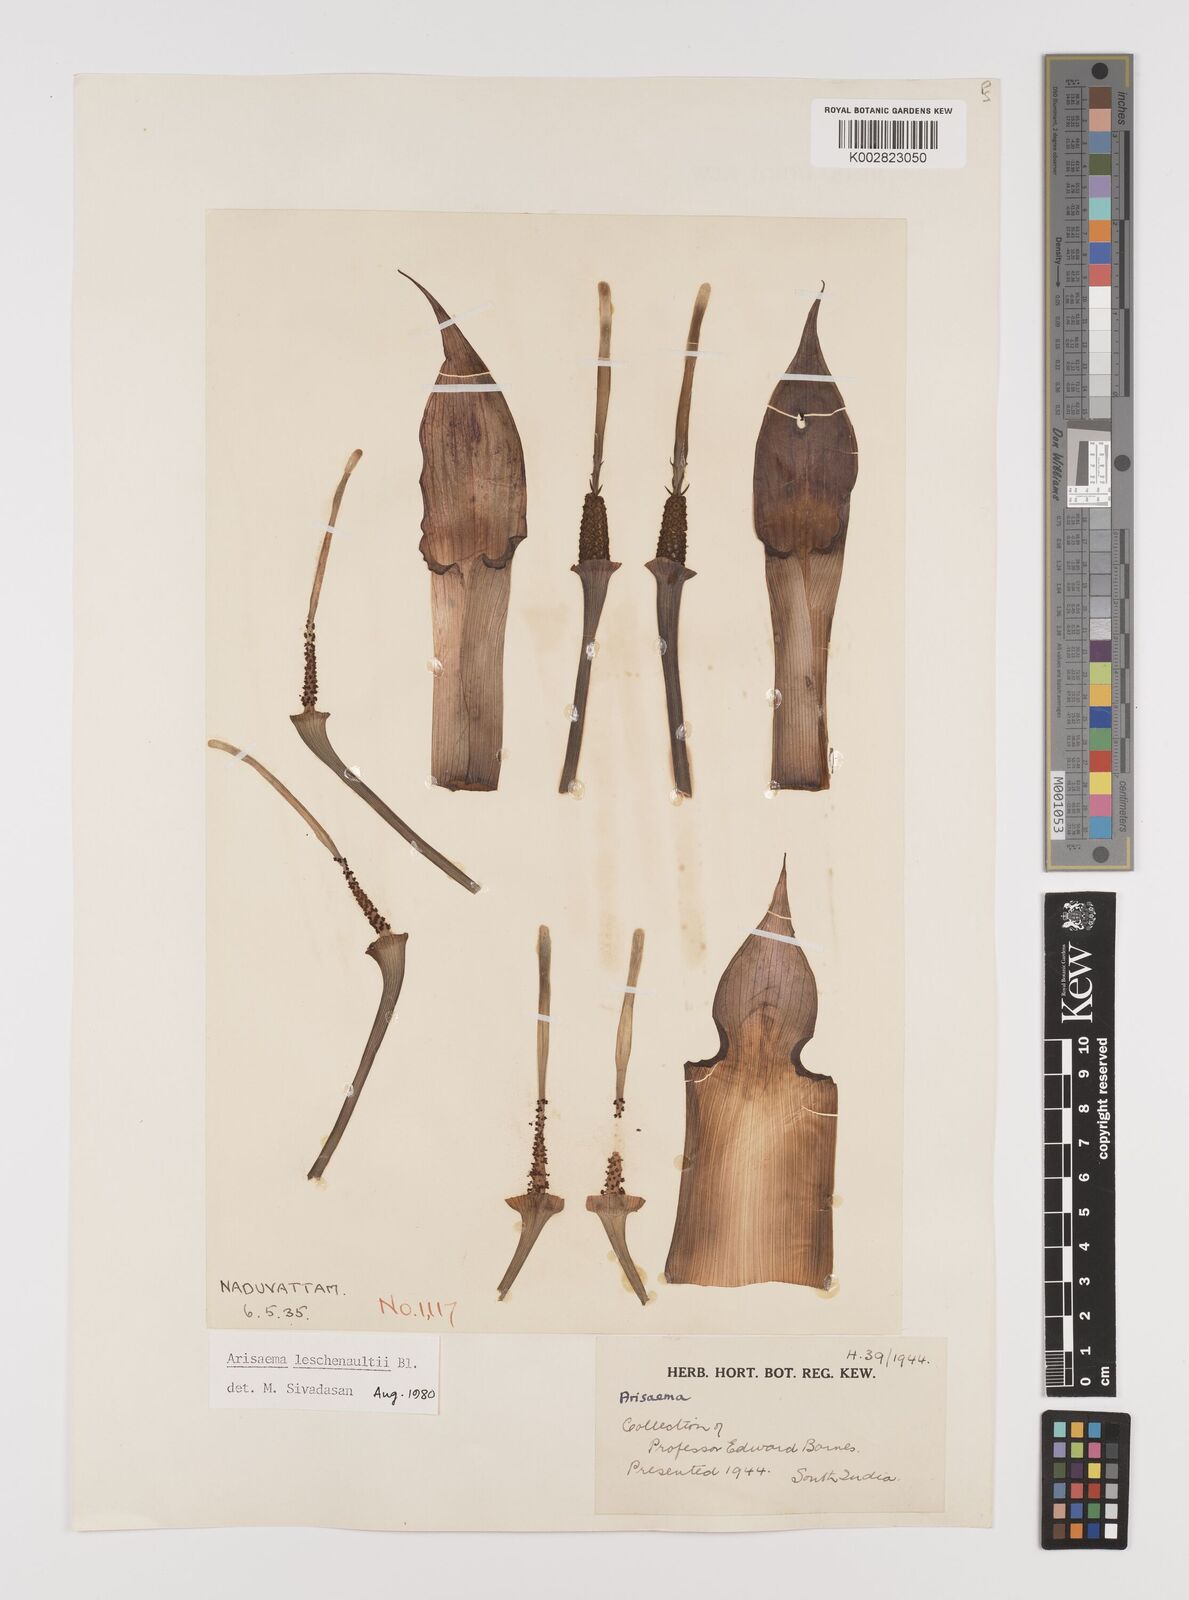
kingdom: Plantae
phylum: Tracheophyta
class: Liliopsida
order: Alismatales
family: Araceae
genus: Arisaema
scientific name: Arisaema leschenaultii
